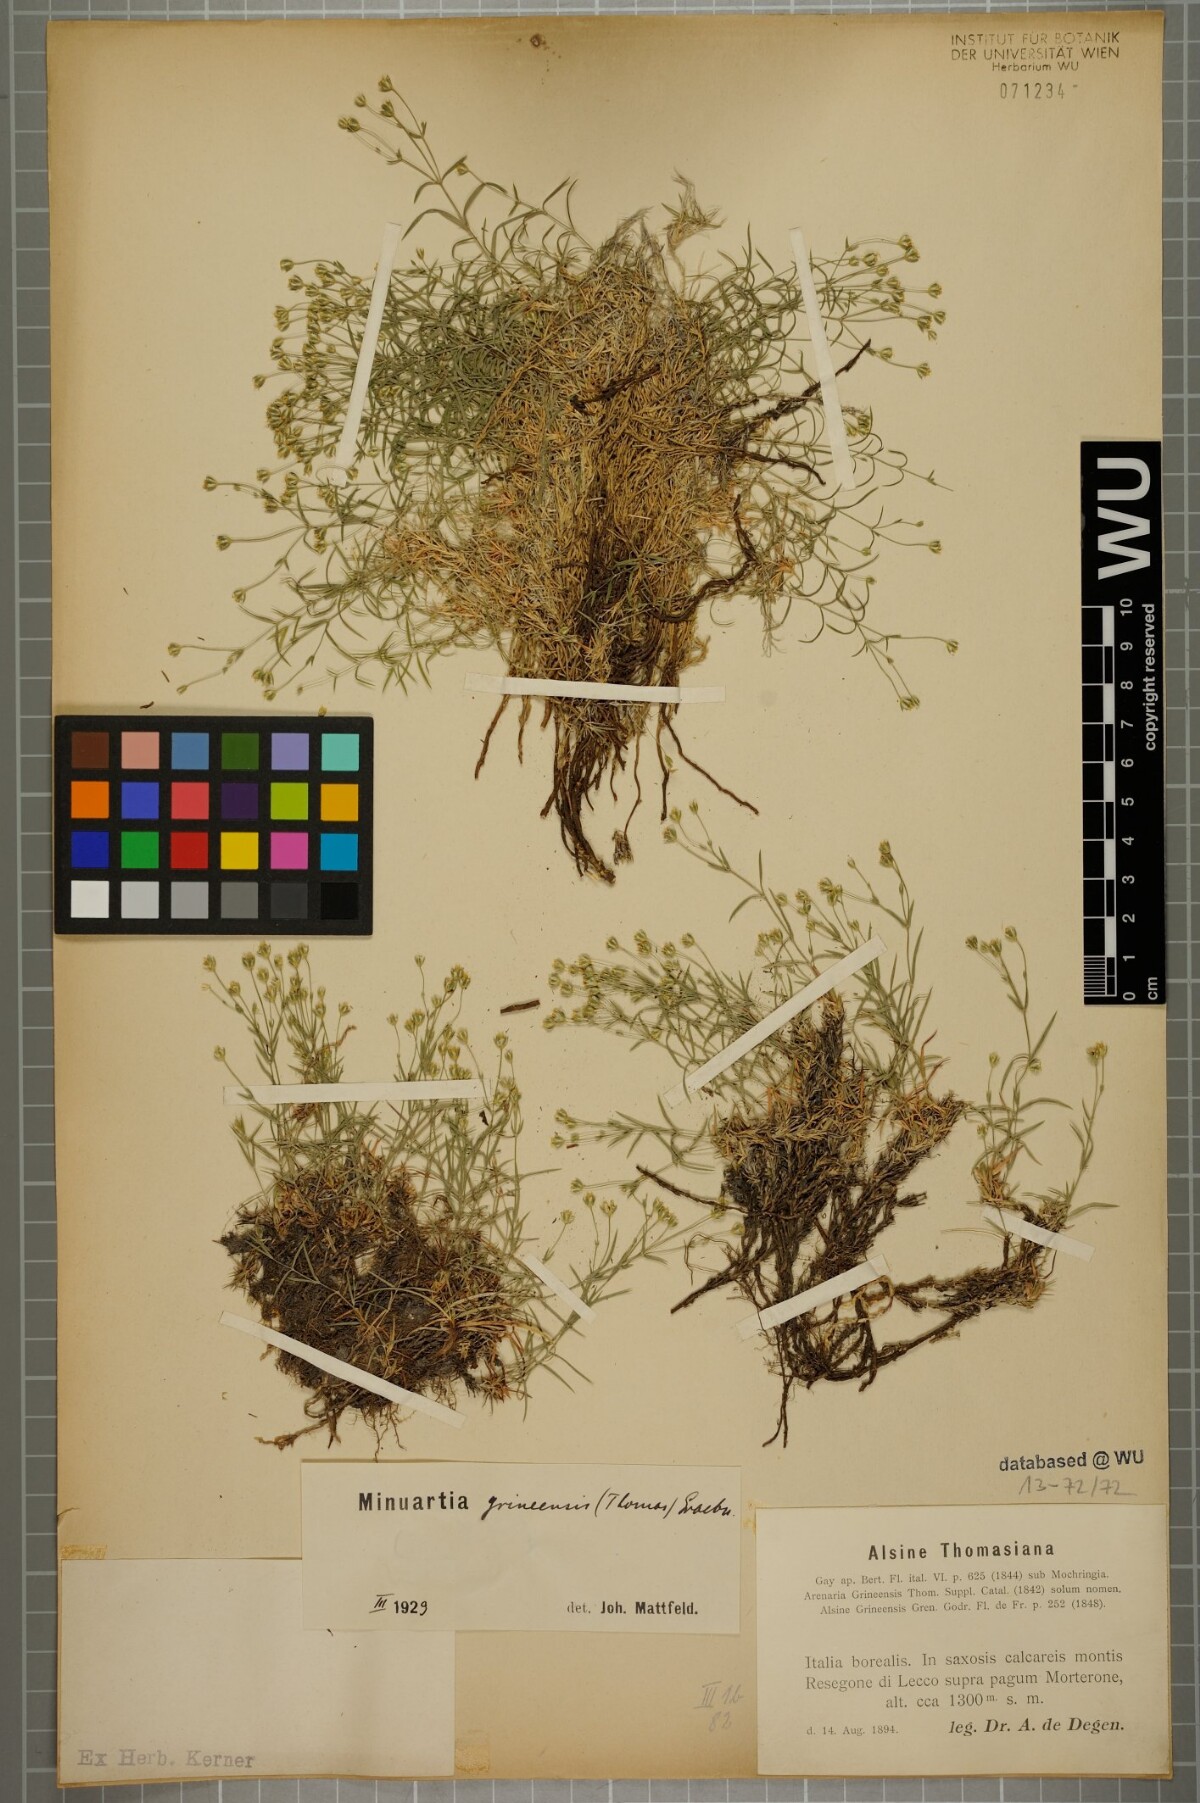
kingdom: Plantae
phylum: Tracheophyta
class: Magnoliopsida
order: Caryophyllales
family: Caryophyllaceae
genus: Facchinia
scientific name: Facchinia grignensis
